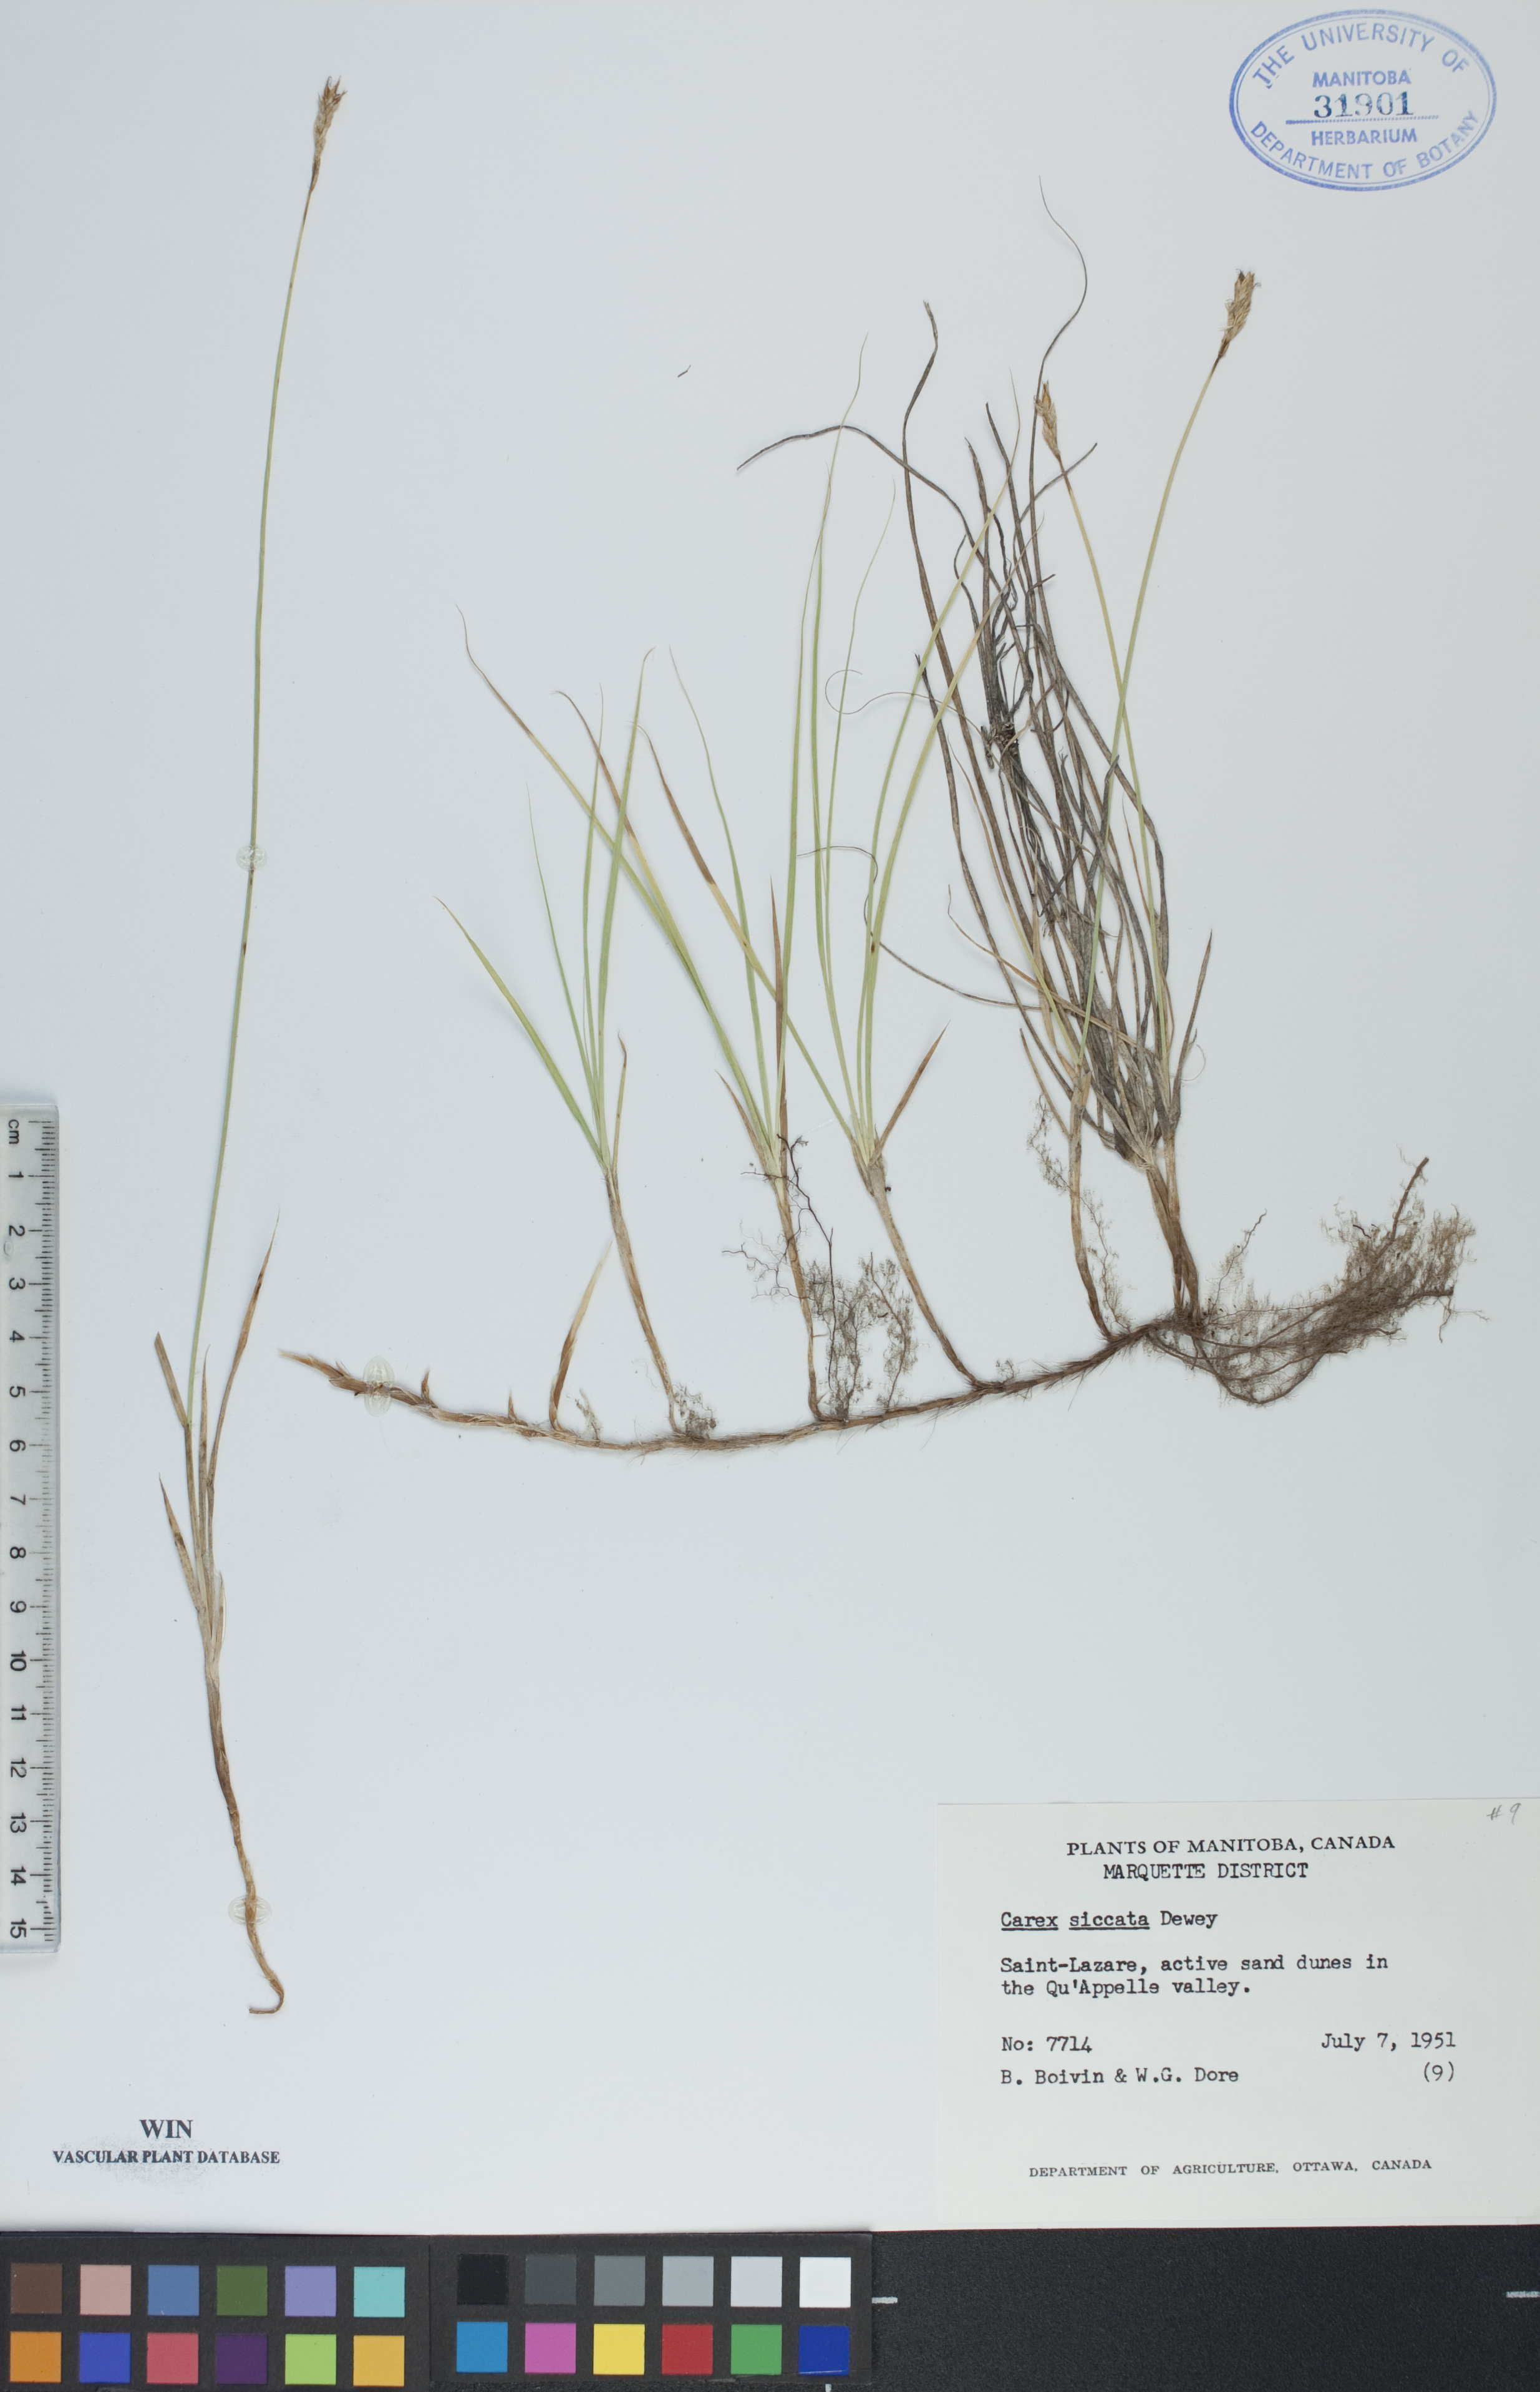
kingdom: Plantae
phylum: Tracheophyta
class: Liliopsida
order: Poales
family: Cyperaceae
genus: Carex
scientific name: Carex siccata
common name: Dry sedge
